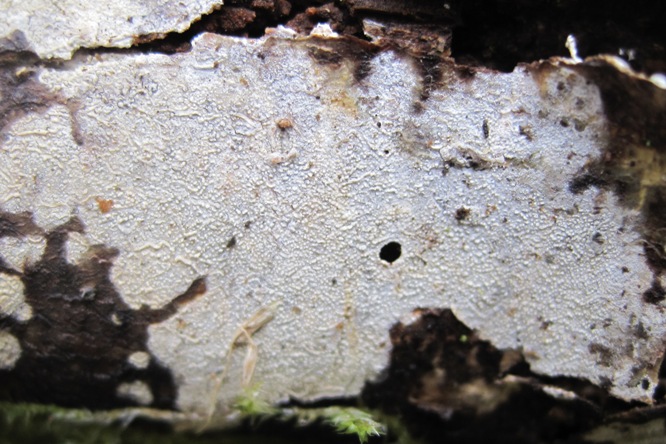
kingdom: Fungi
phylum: Basidiomycota
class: Agaricomycetes
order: Hymenochaetales
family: Rickenellaceae
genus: Resinicium
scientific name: Resinicium bicolor
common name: almindelig vokstand
